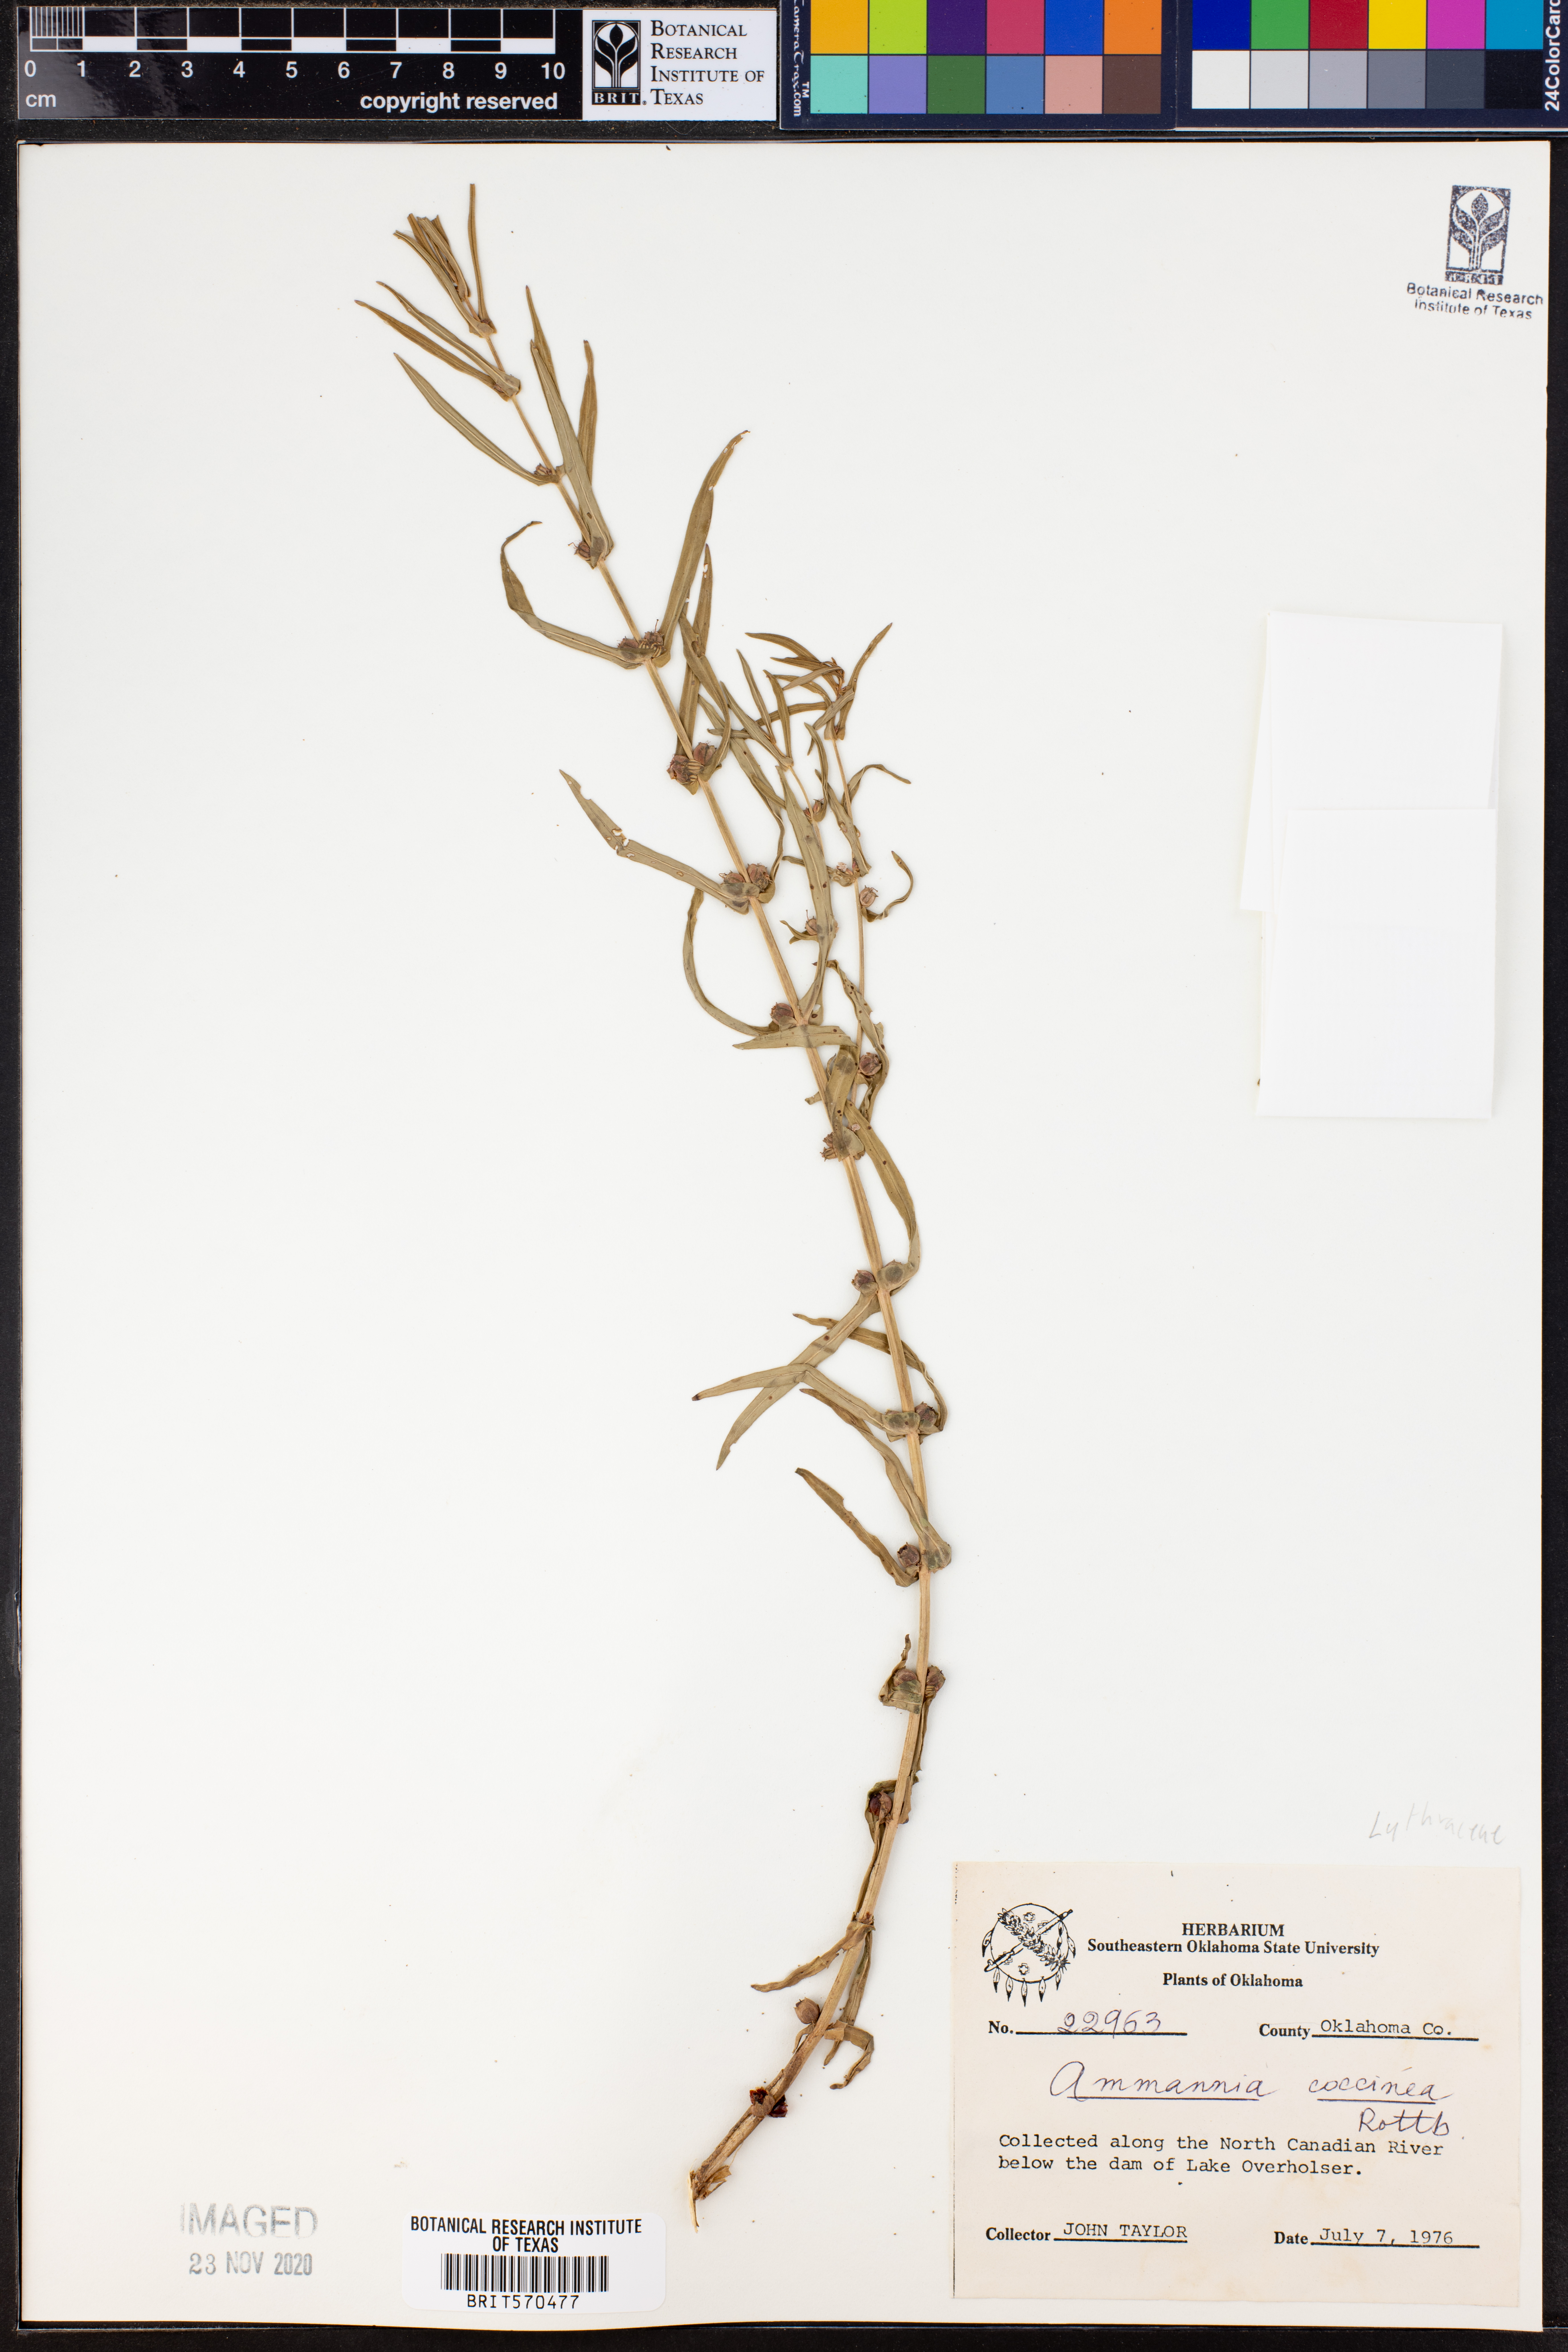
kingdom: Plantae
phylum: Tracheophyta
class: Magnoliopsida
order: Myrtales
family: Lythraceae
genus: Ammannia
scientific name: Ammannia coccinea
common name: Valley redstem
